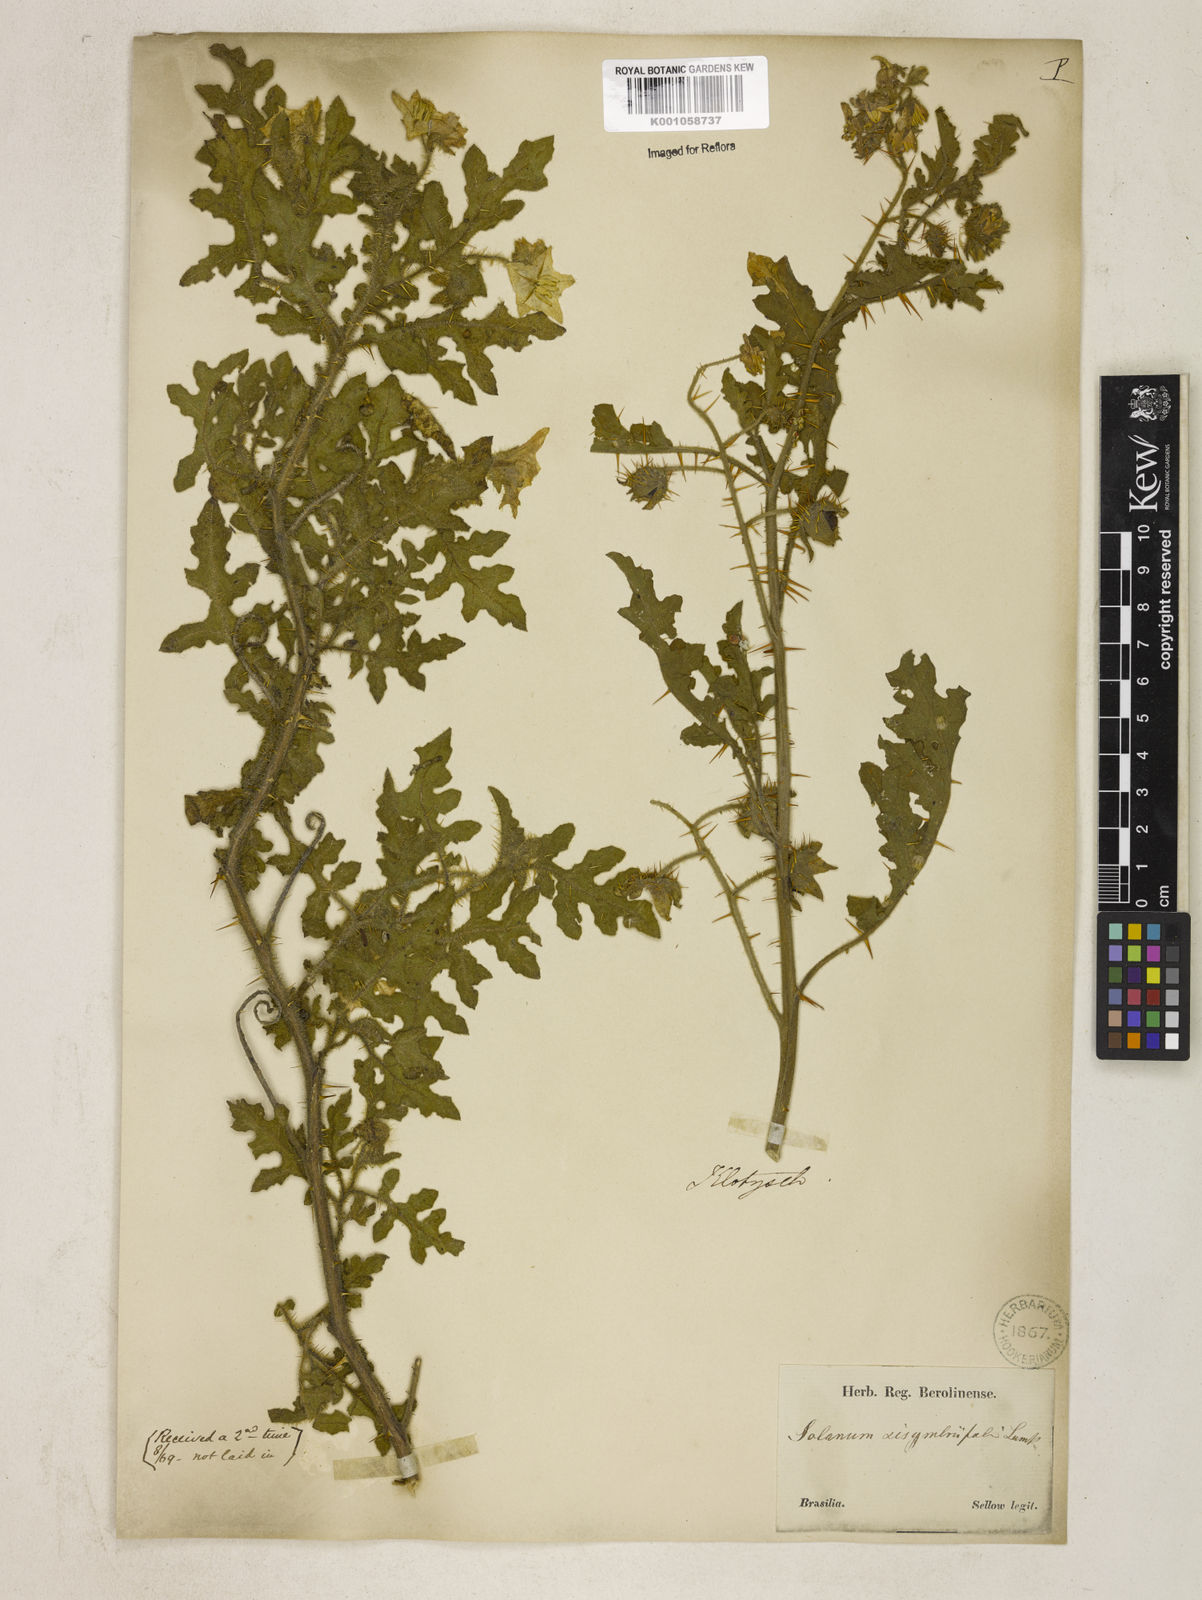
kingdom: Plantae
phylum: Tracheophyta
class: Magnoliopsida
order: Solanales
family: Solanaceae
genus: Solanum
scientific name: Solanum sisymbriifolium
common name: Red buffalo-bur
